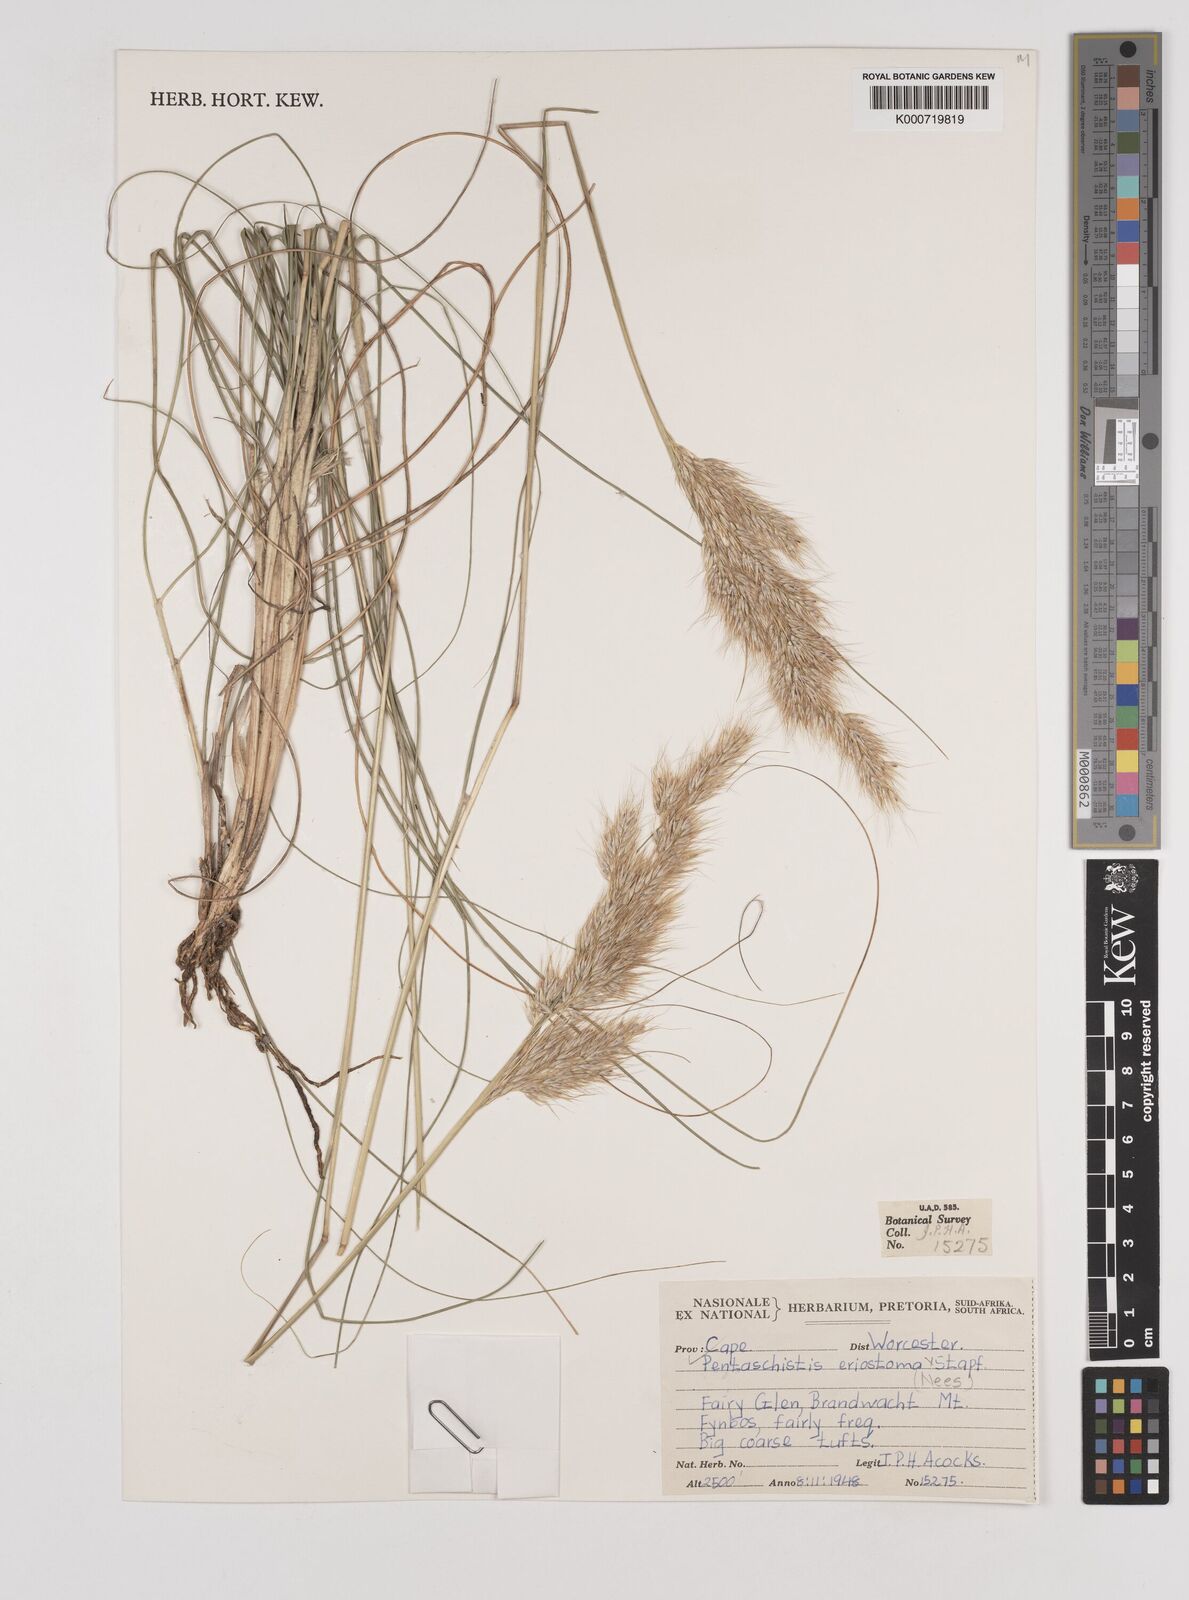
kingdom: Plantae
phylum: Tracheophyta
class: Liliopsida
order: Poales
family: Poaceae
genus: Pentameris
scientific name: Pentameris eriostoma
